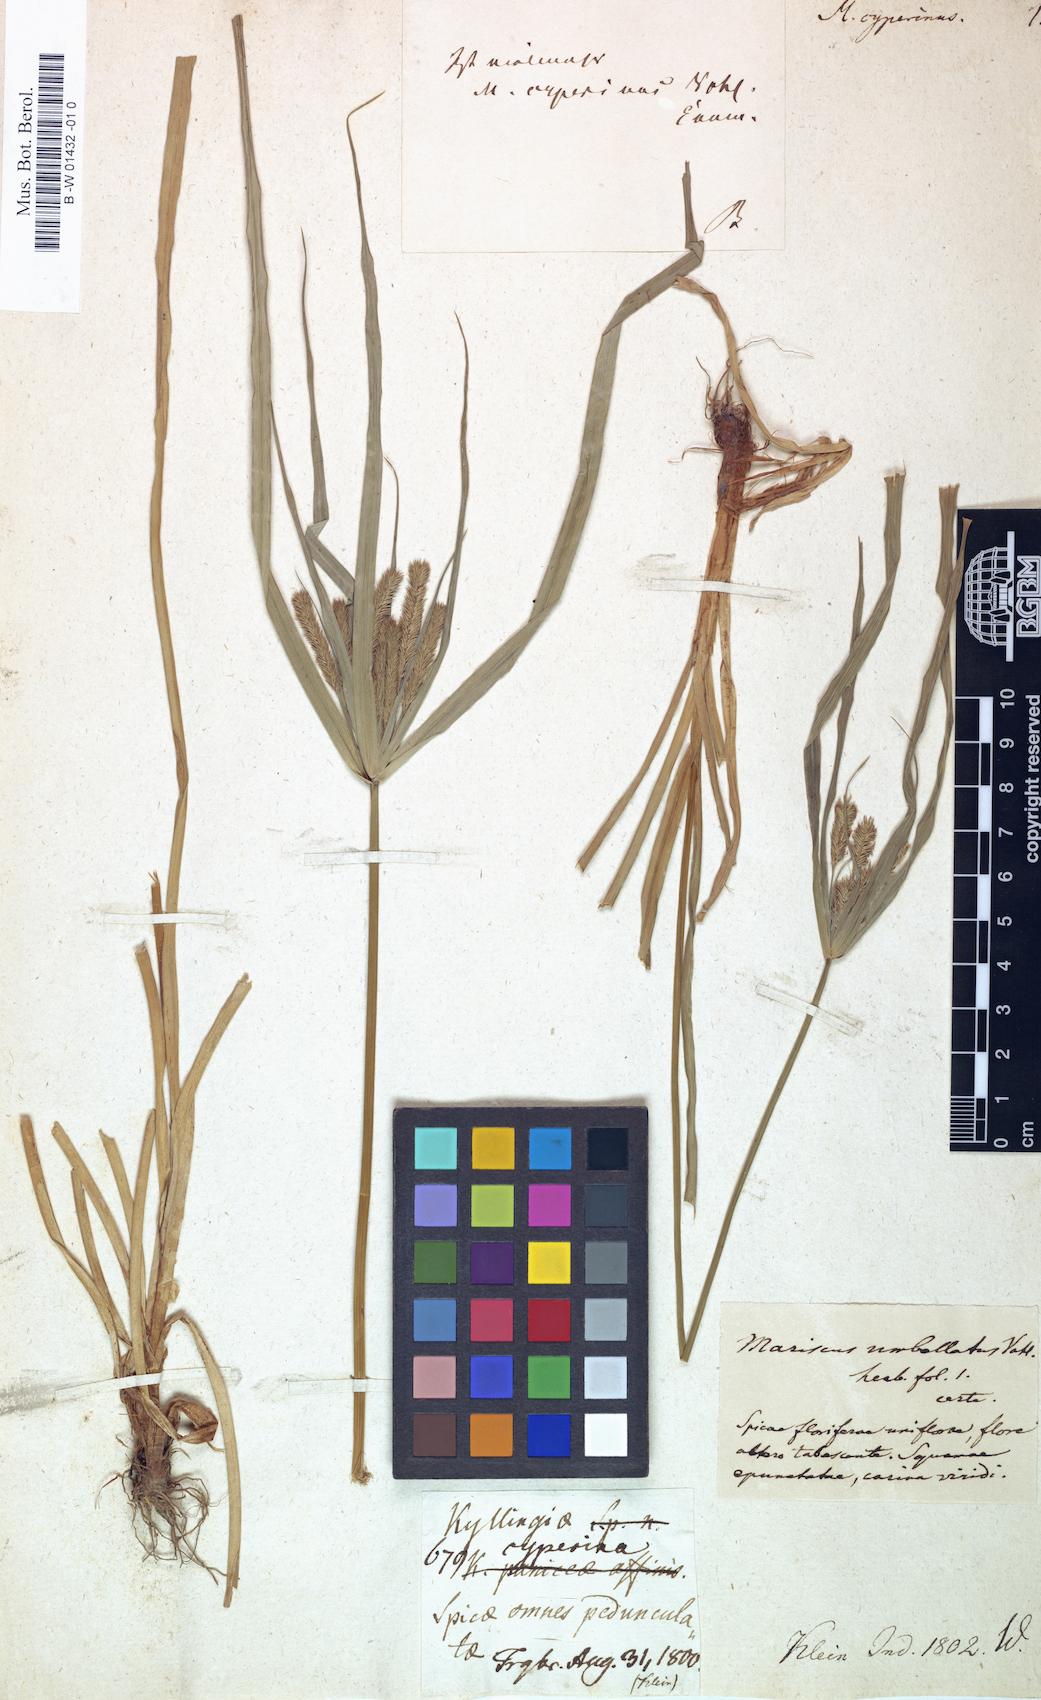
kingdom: Plantae
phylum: Tracheophyta
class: Liliopsida
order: Poales
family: Cyperaceae
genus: Cyperus
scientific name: Cyperus cyperinus
